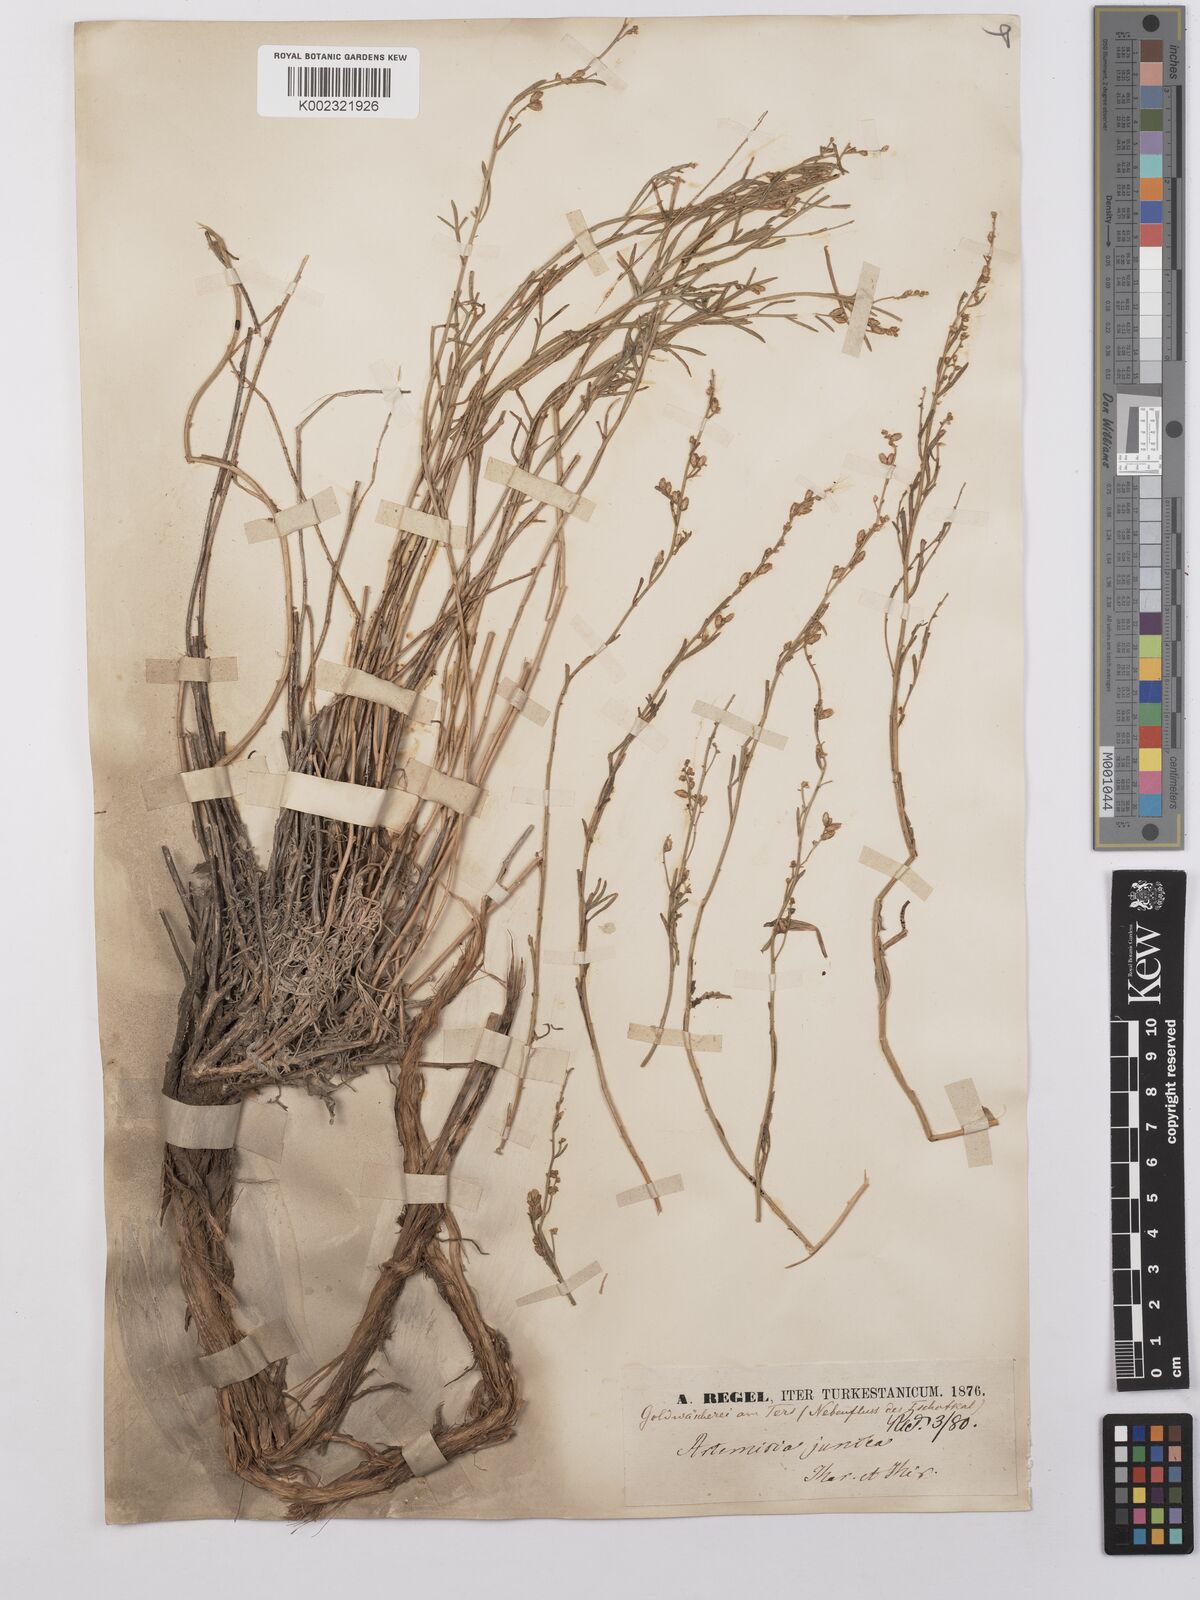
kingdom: Plantae
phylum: Tracheophyta
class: Magnoliopsida
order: Asterales
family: Asteraceae
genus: Artemisia
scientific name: Artemisia juncea
